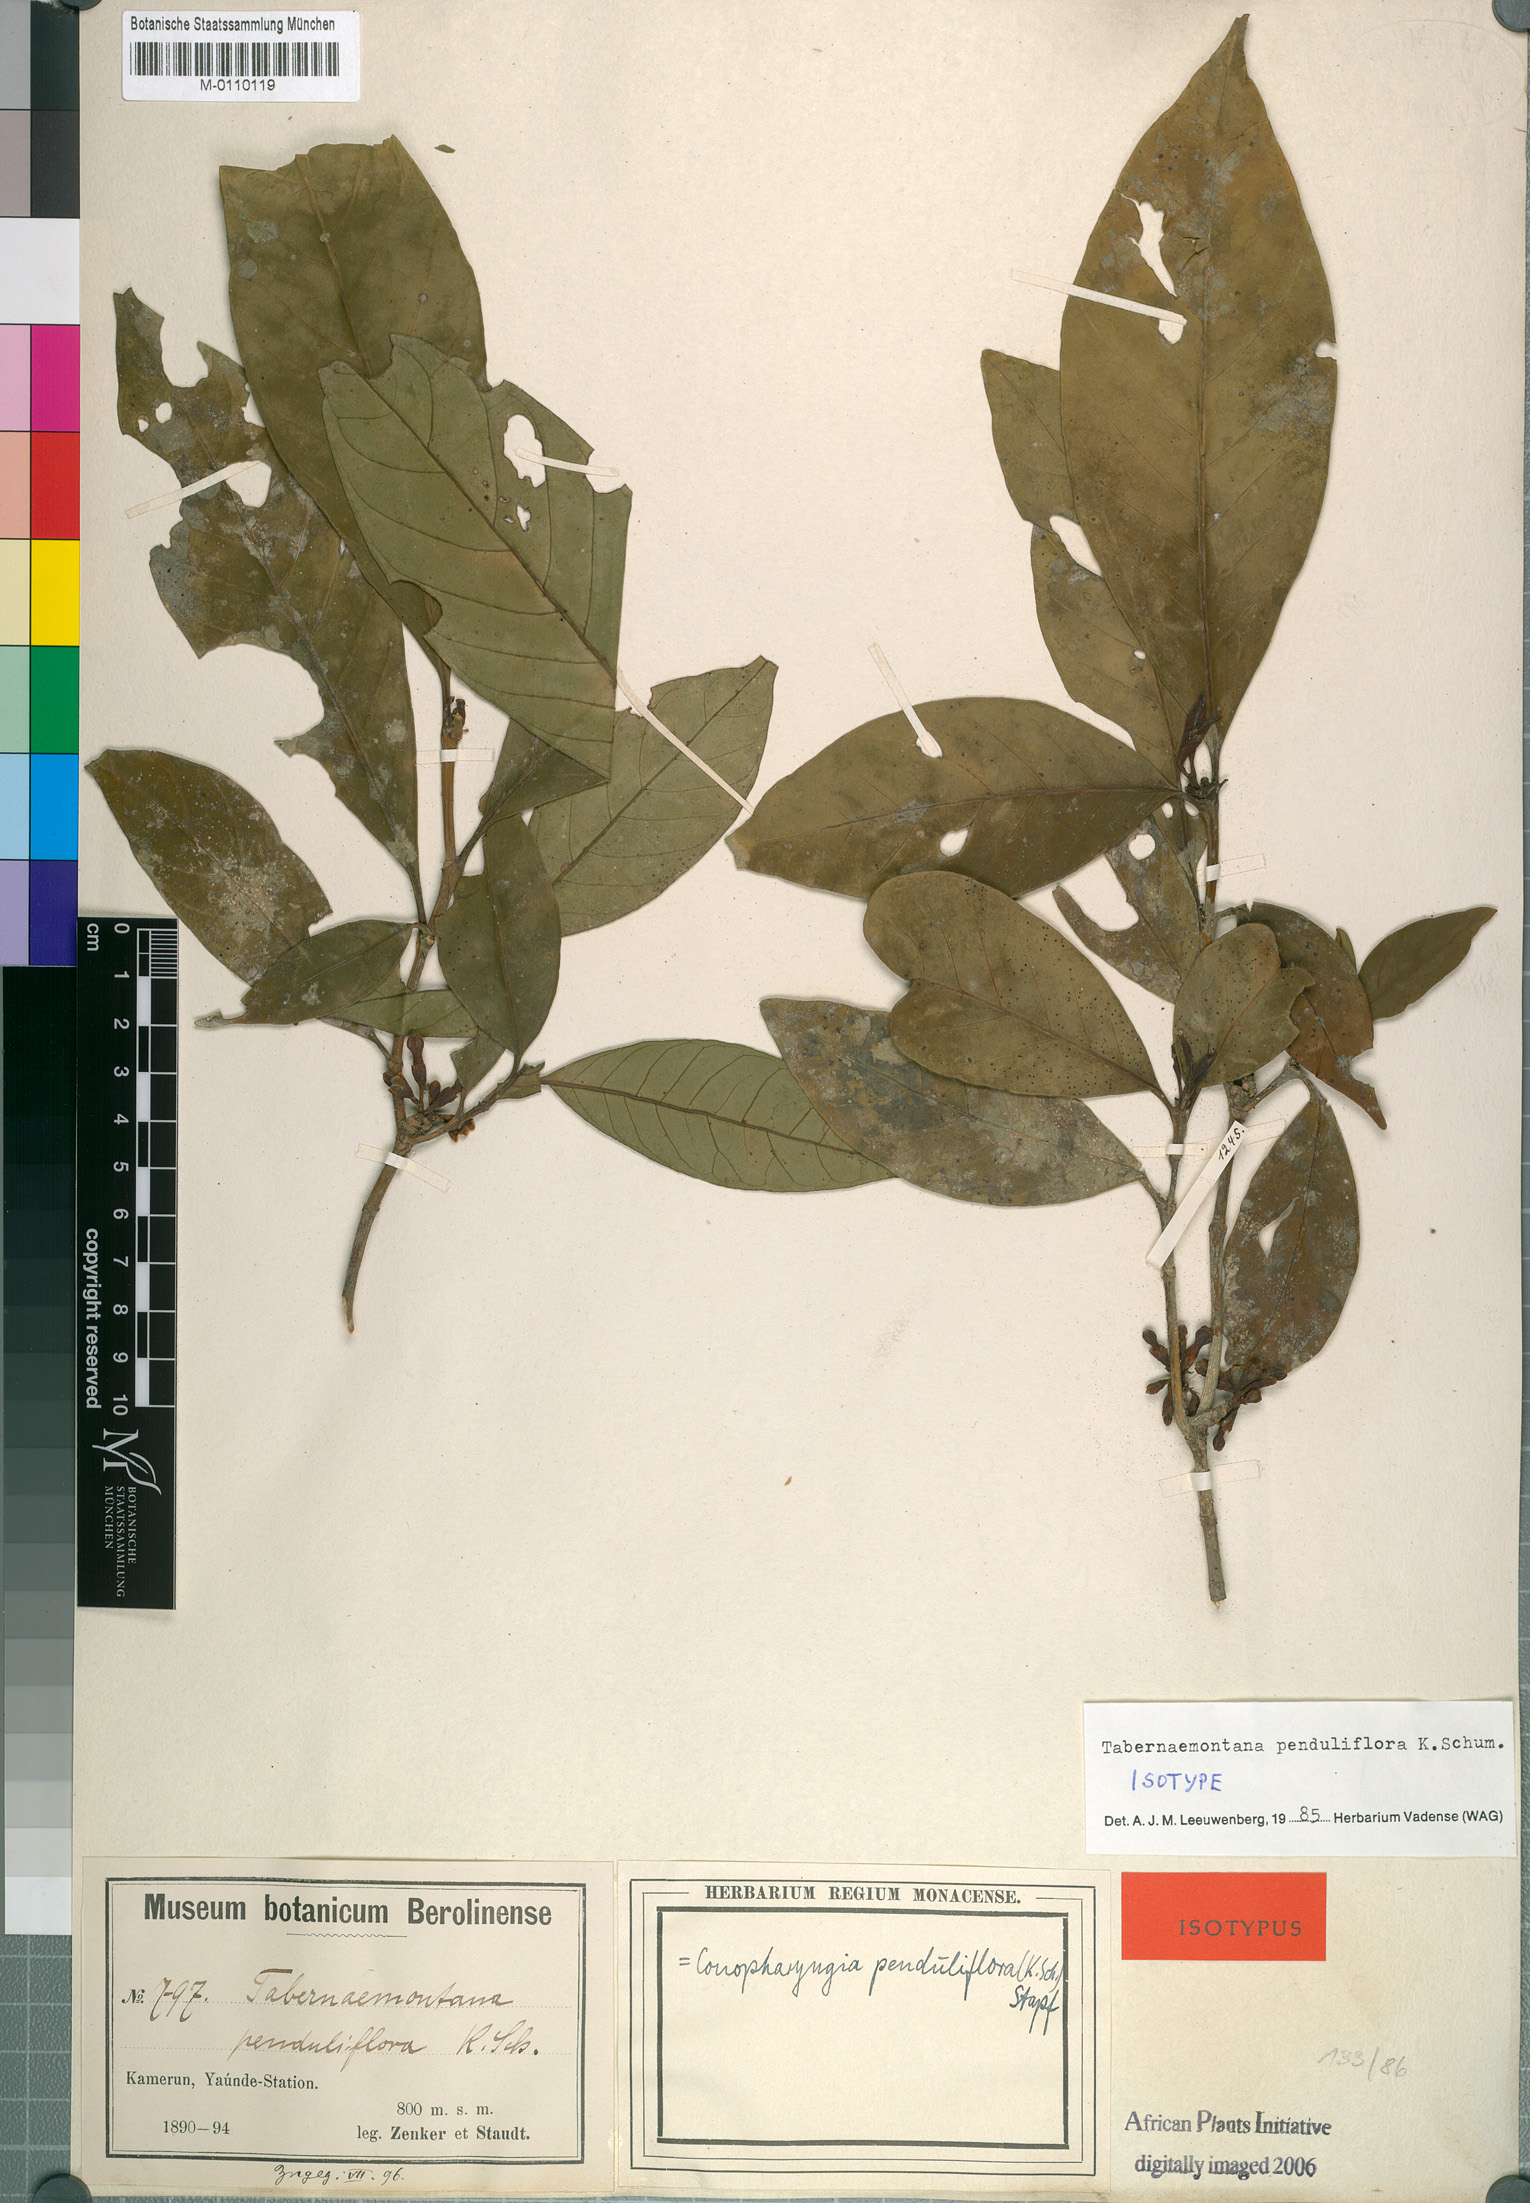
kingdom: Plantae
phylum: Tracheophyta
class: Magnoliopsida
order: Gentianales
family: Apocynaceae
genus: Tabernaemontana
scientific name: Tabernaemontana penduliflora
